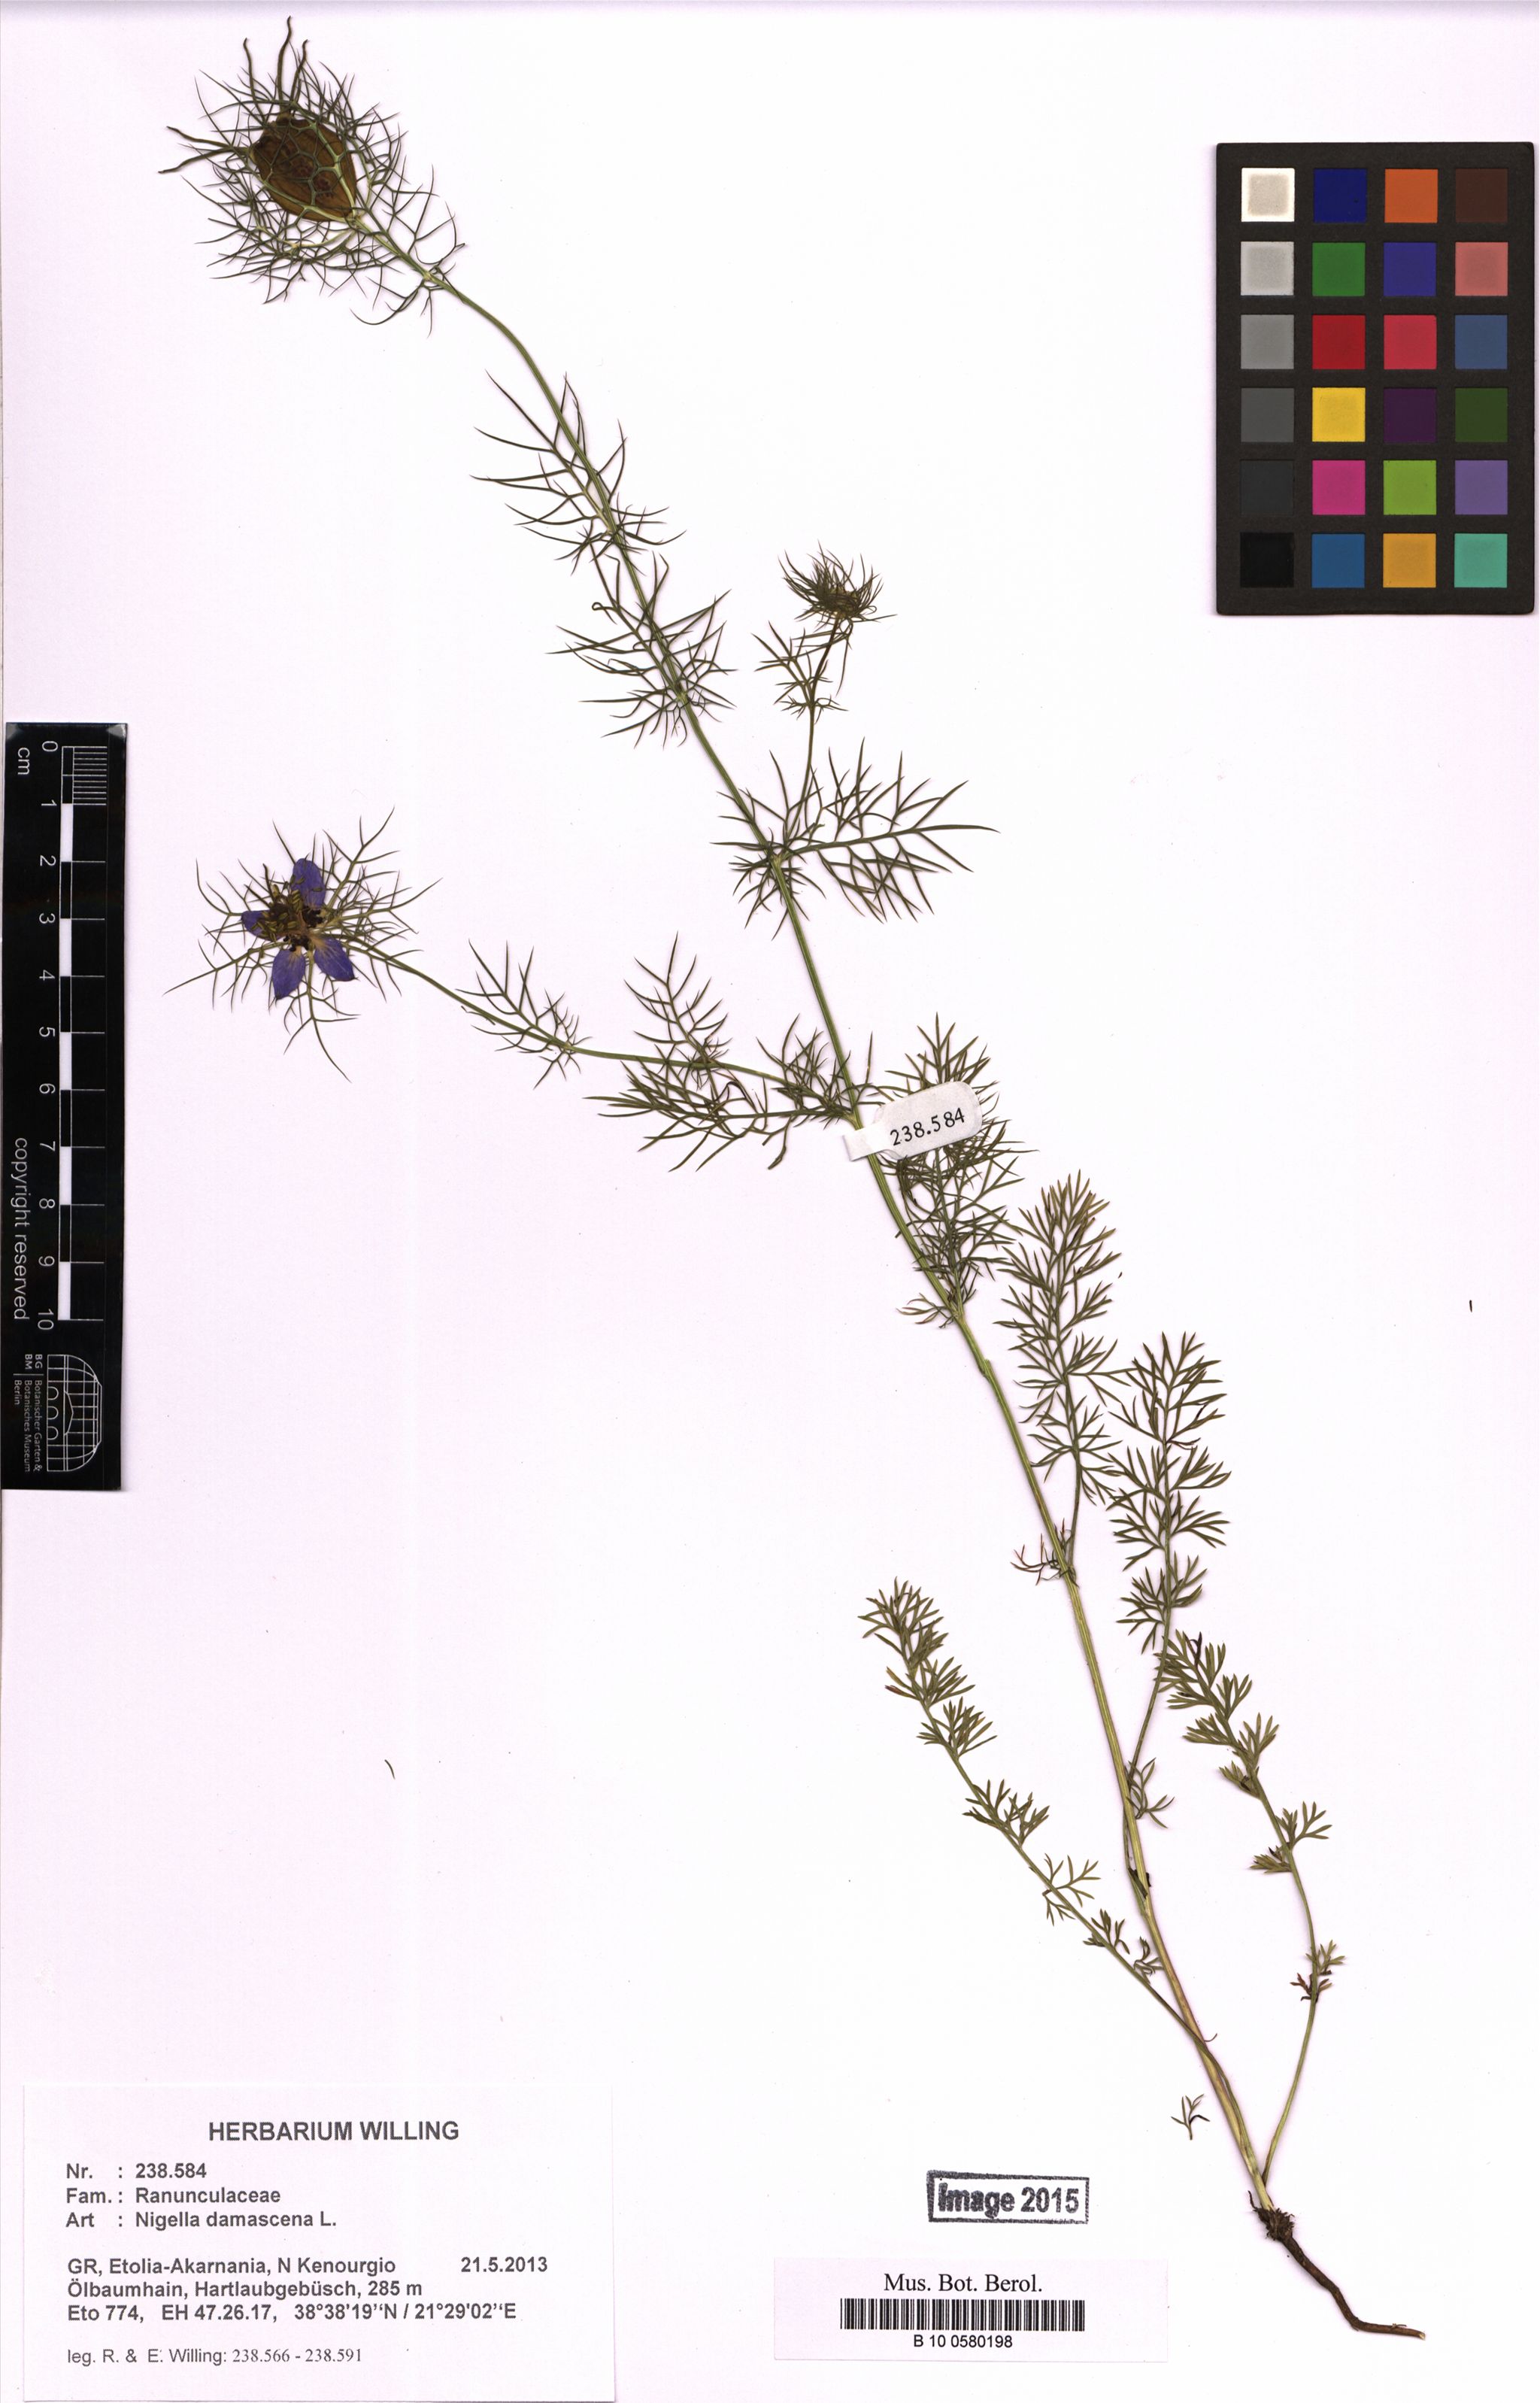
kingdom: Plantae
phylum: Tracheophyta
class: Magnoliopsida
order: Ranunculales
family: Ranunculaceae
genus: Nigella
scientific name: Nigella damascena
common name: Love-in-a-mist
